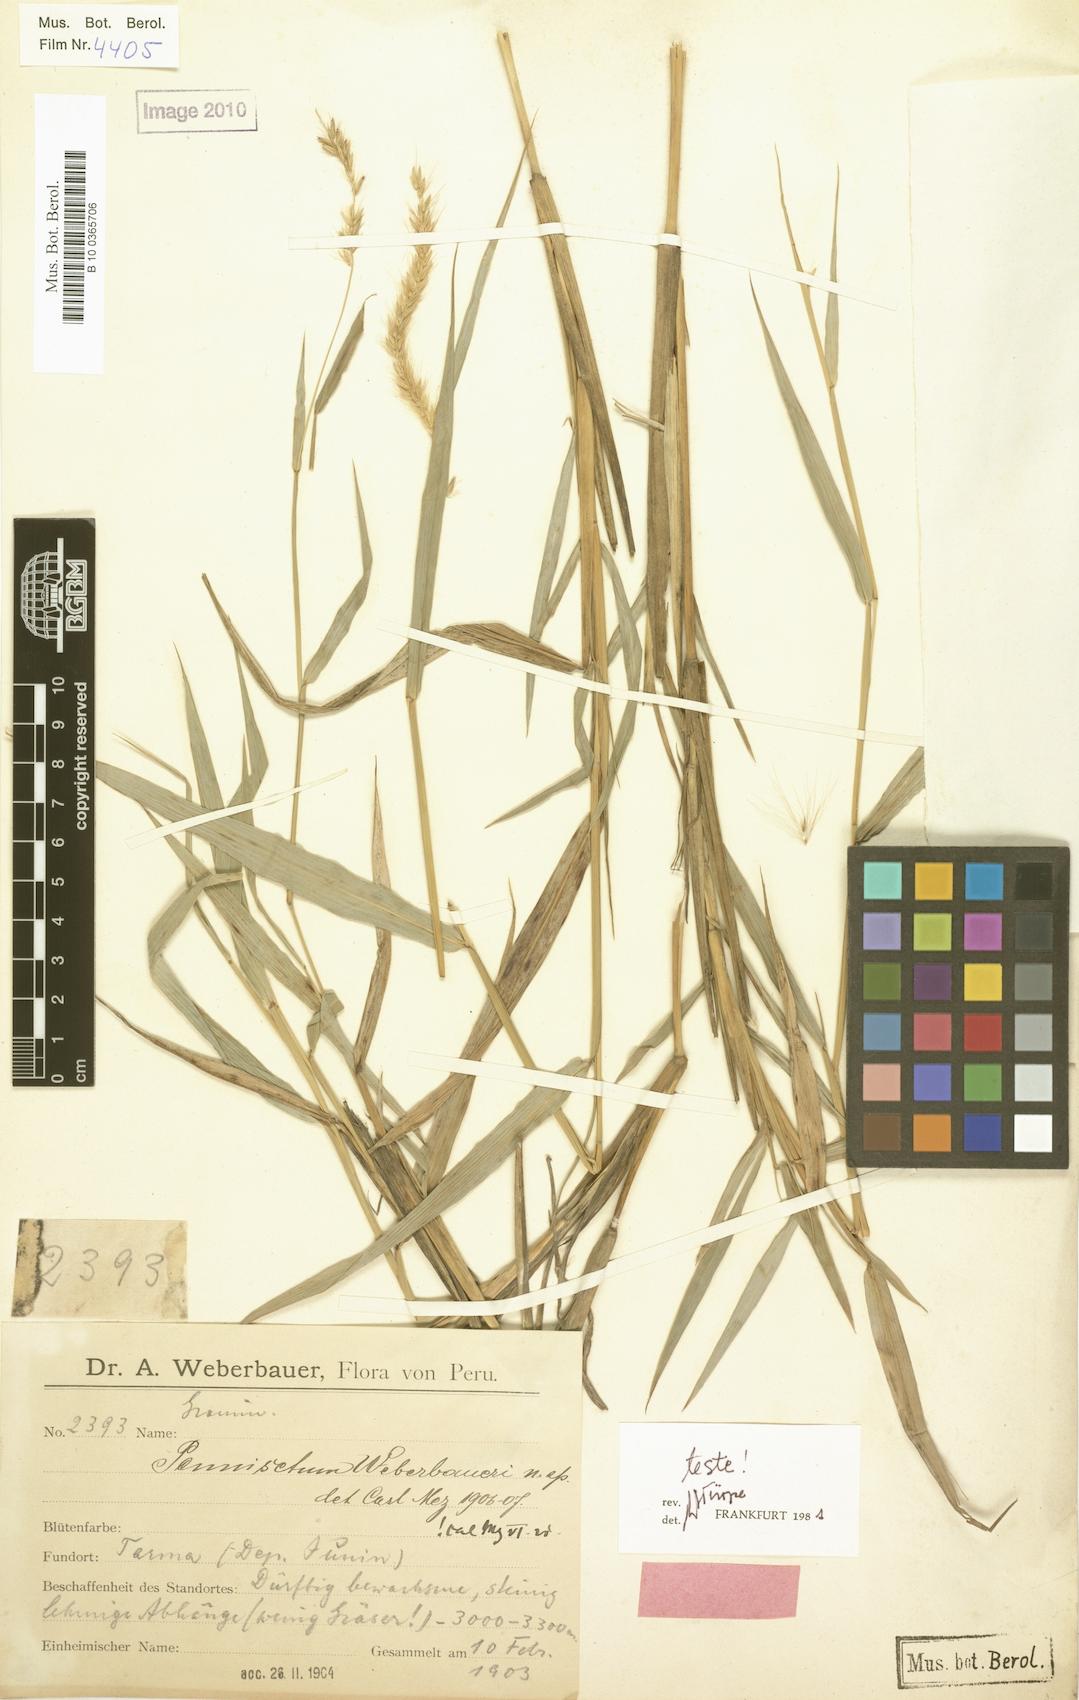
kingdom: Plantae
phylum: Tracheophyta
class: Liliopsida
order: Poales
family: Poaceae
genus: Cenchrus
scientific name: Cenchrus weberbaueri
